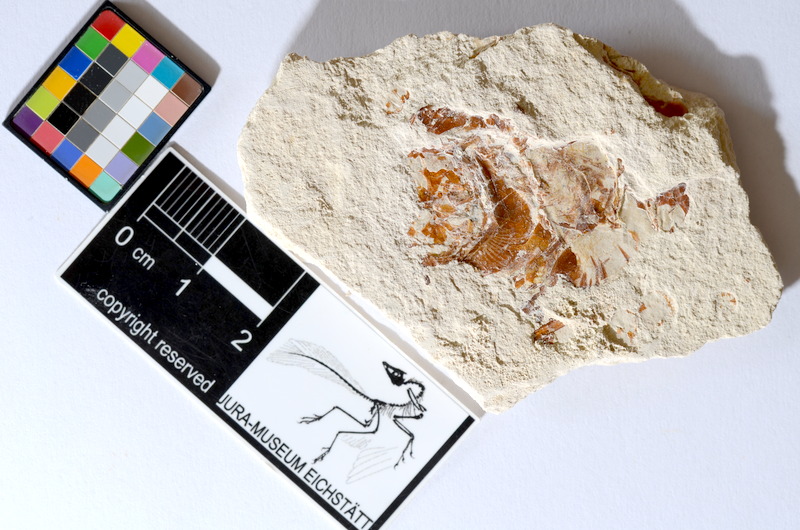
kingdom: Animalia
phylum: Chordata
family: Ascalaboidae
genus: Tharsis
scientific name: Tharsis dubius
